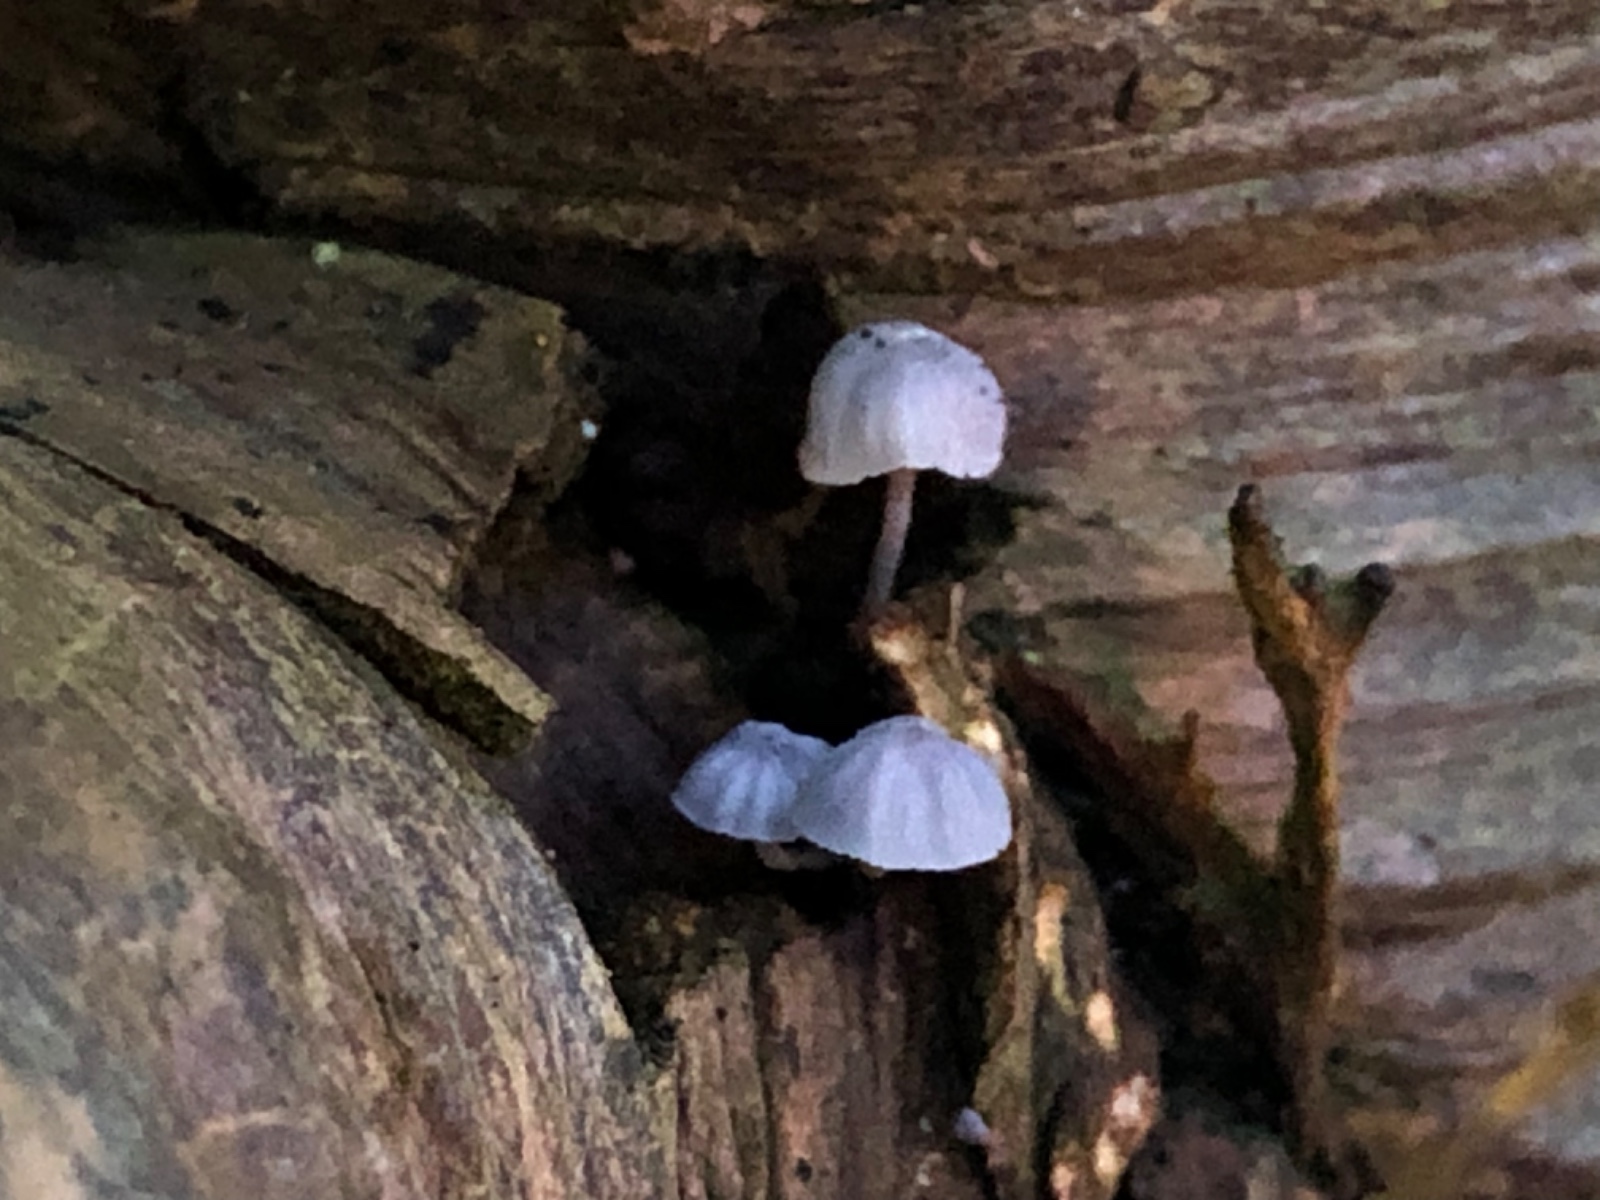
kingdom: Fungi
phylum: Basidiomycota
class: Agaricomycetes
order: Agaricales
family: Mycenaceae
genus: Mycena
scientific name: Mycena pseudocorticola
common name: gråblå bark-huesvamp
